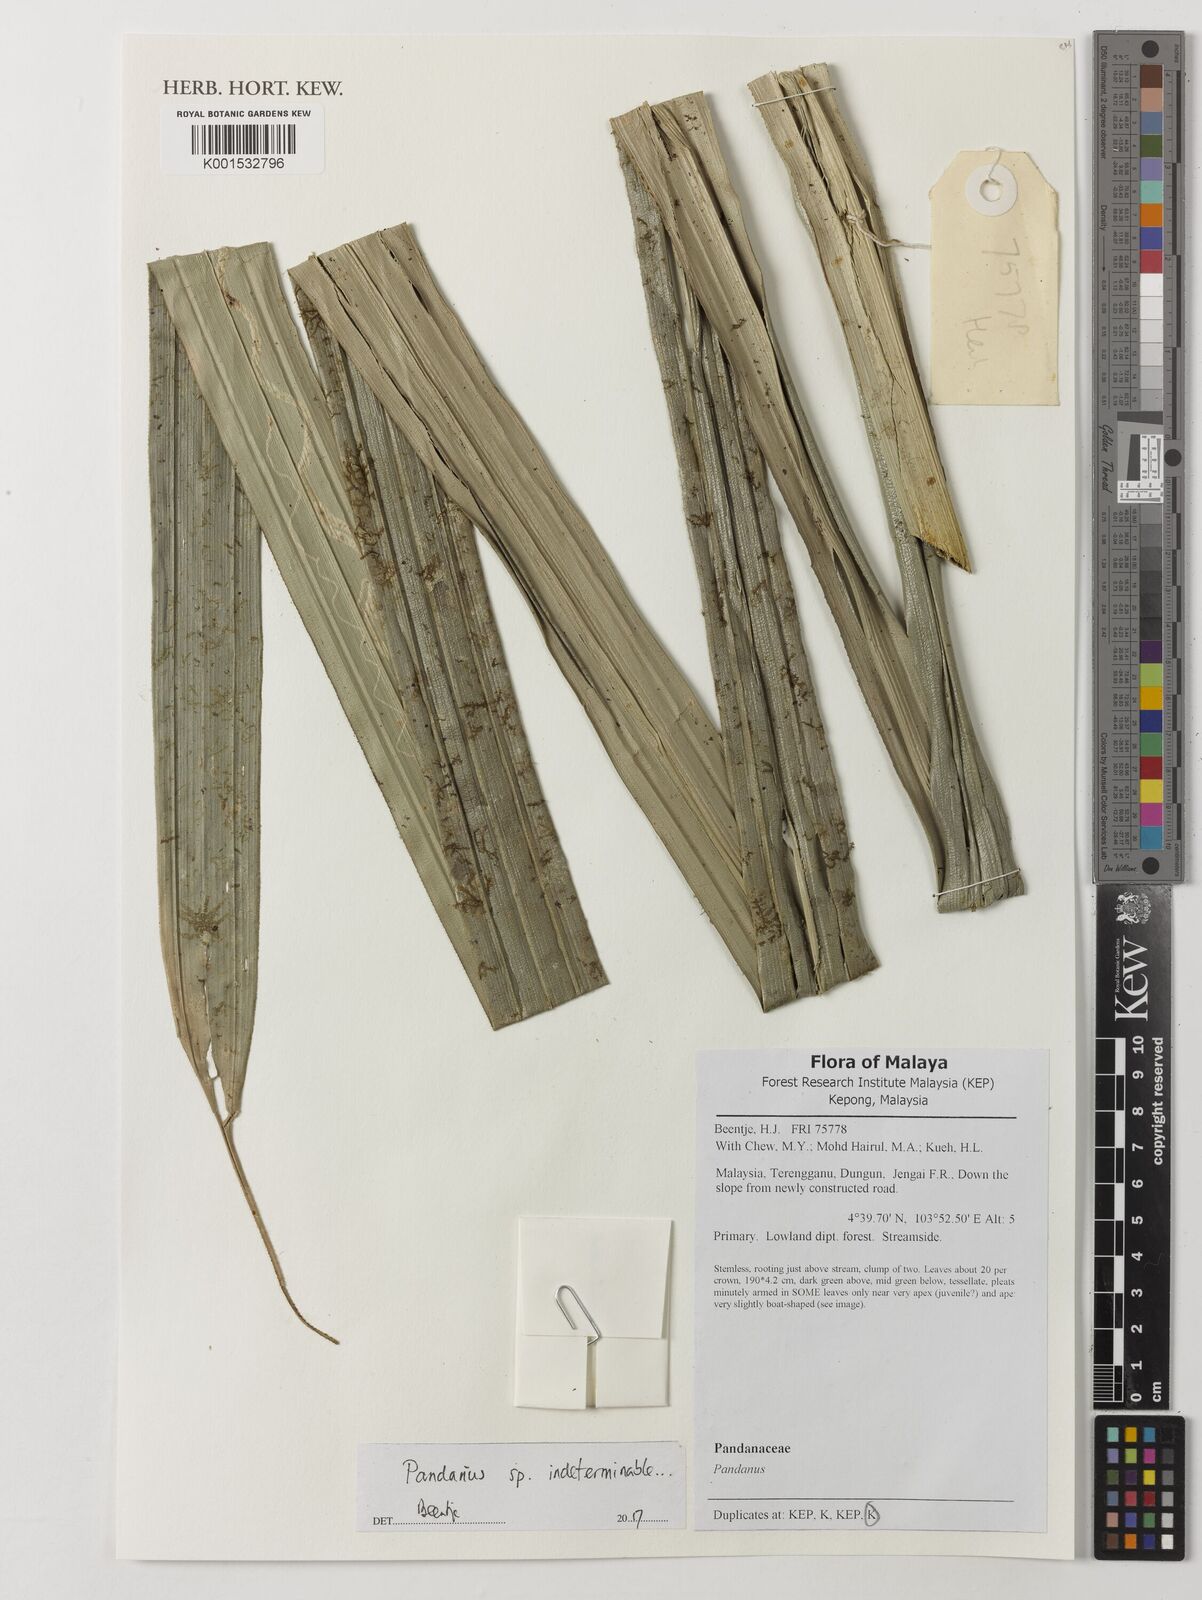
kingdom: Plantae
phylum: Tracheophyta
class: Liliopsida
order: Pandanales
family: Pandanaceae
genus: Pandanus
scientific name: Pandanus crinifolius
